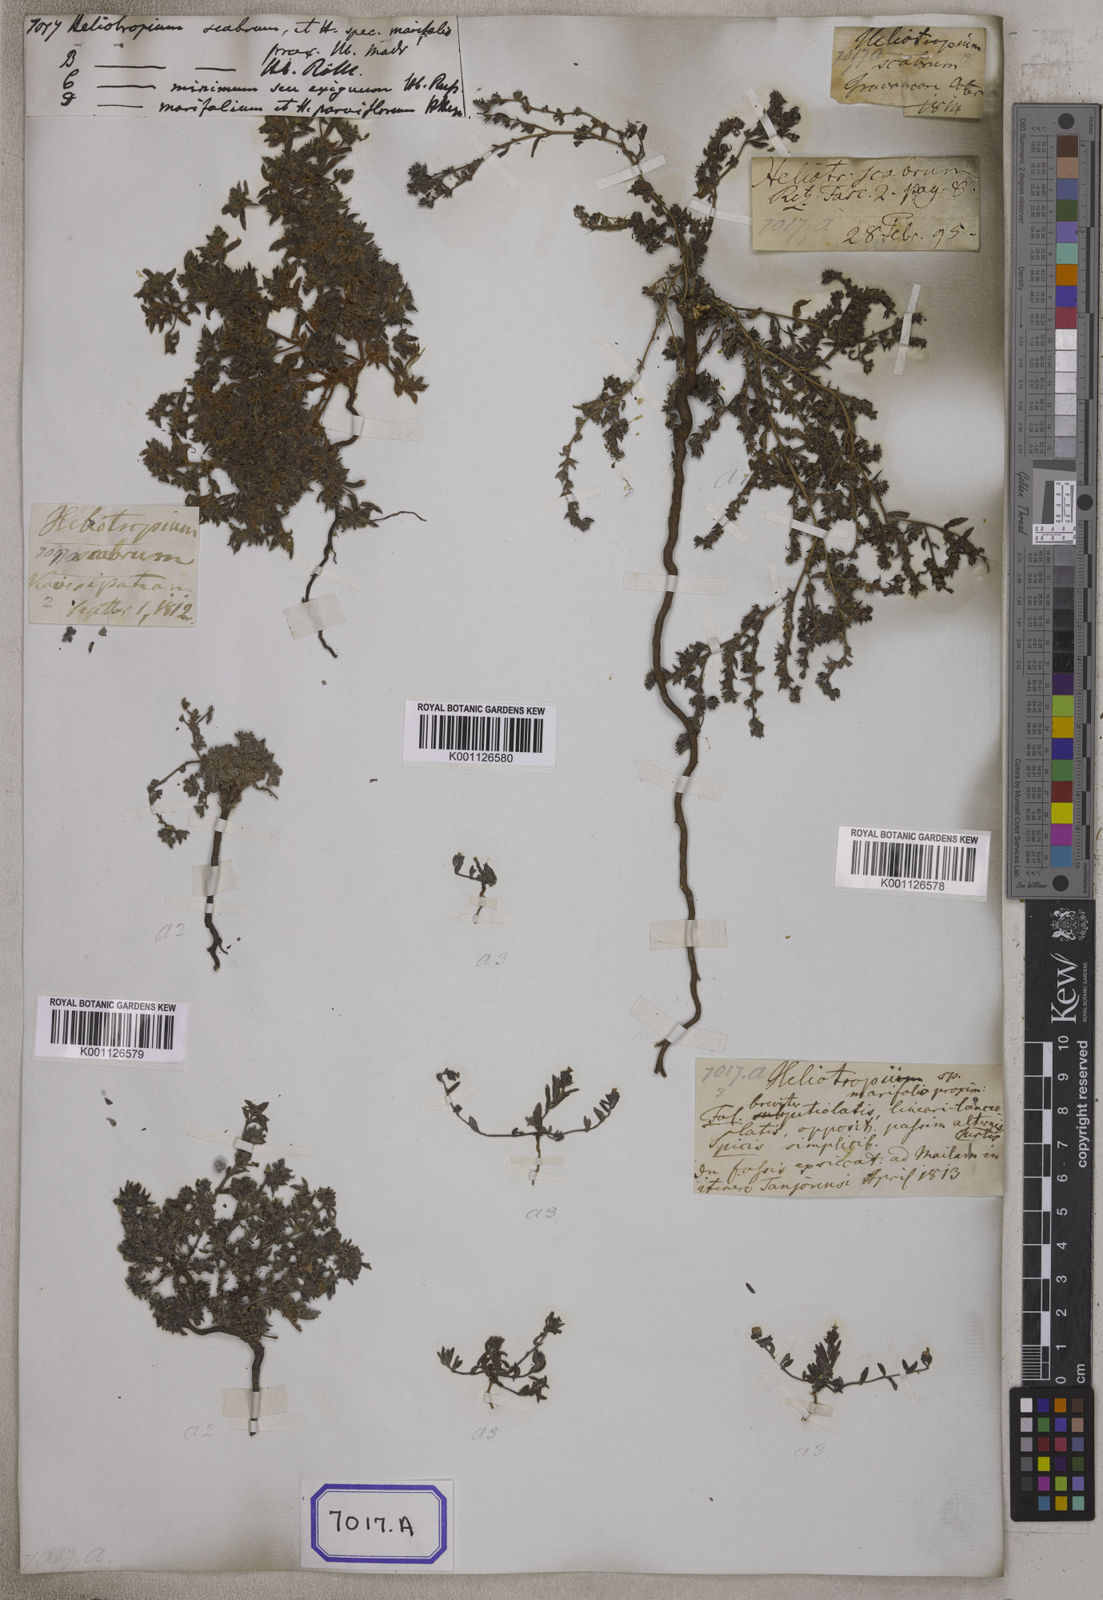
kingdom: Plantae
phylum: Tracheophyta
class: Magnoliopsida
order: Boraginales
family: Heliotropiaceae
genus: Euploca
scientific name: Euploca marifolia
